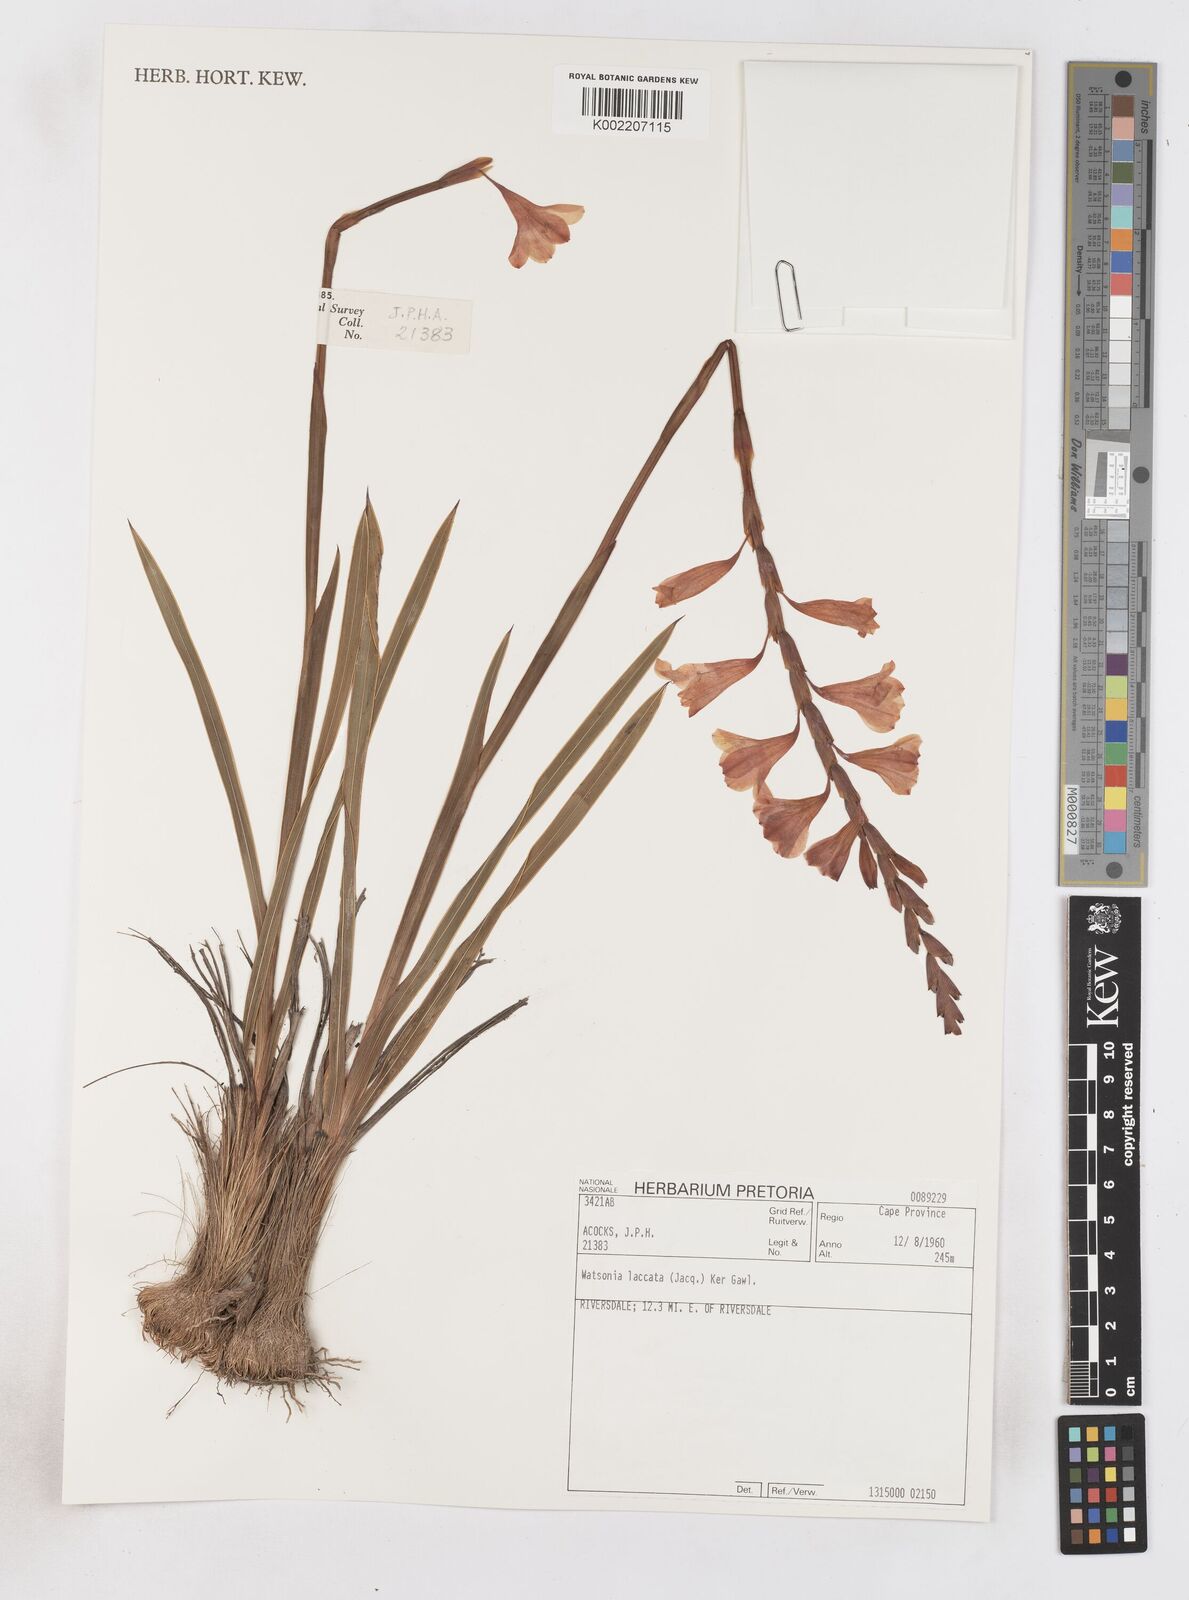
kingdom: Plantae
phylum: Tracheophyta
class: Liliopsida
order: Asparagales
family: Iridaceae
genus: Watsonia
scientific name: Watsonia laccata
